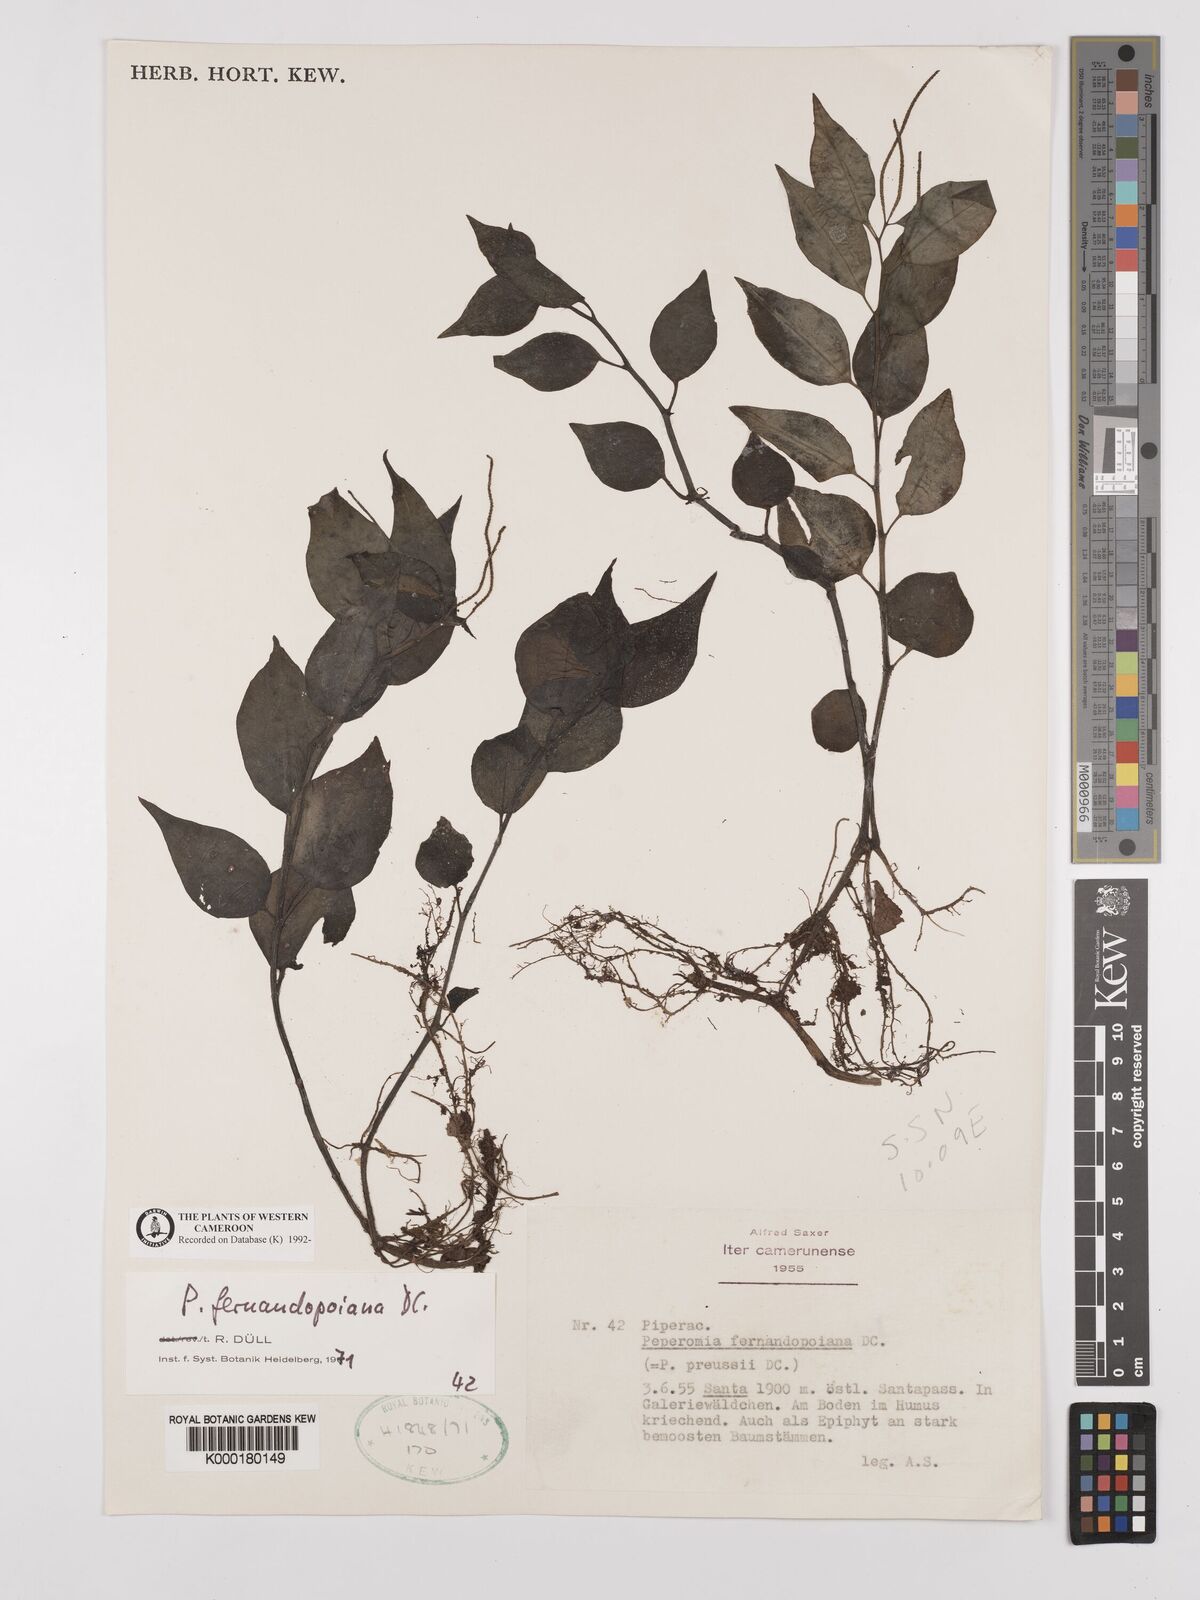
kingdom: Plantae
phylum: Tracheophyta
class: Magnoliopsida
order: Piperales
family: Piperaceae
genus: Peperomia
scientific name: Peperomia fernandopoiana
